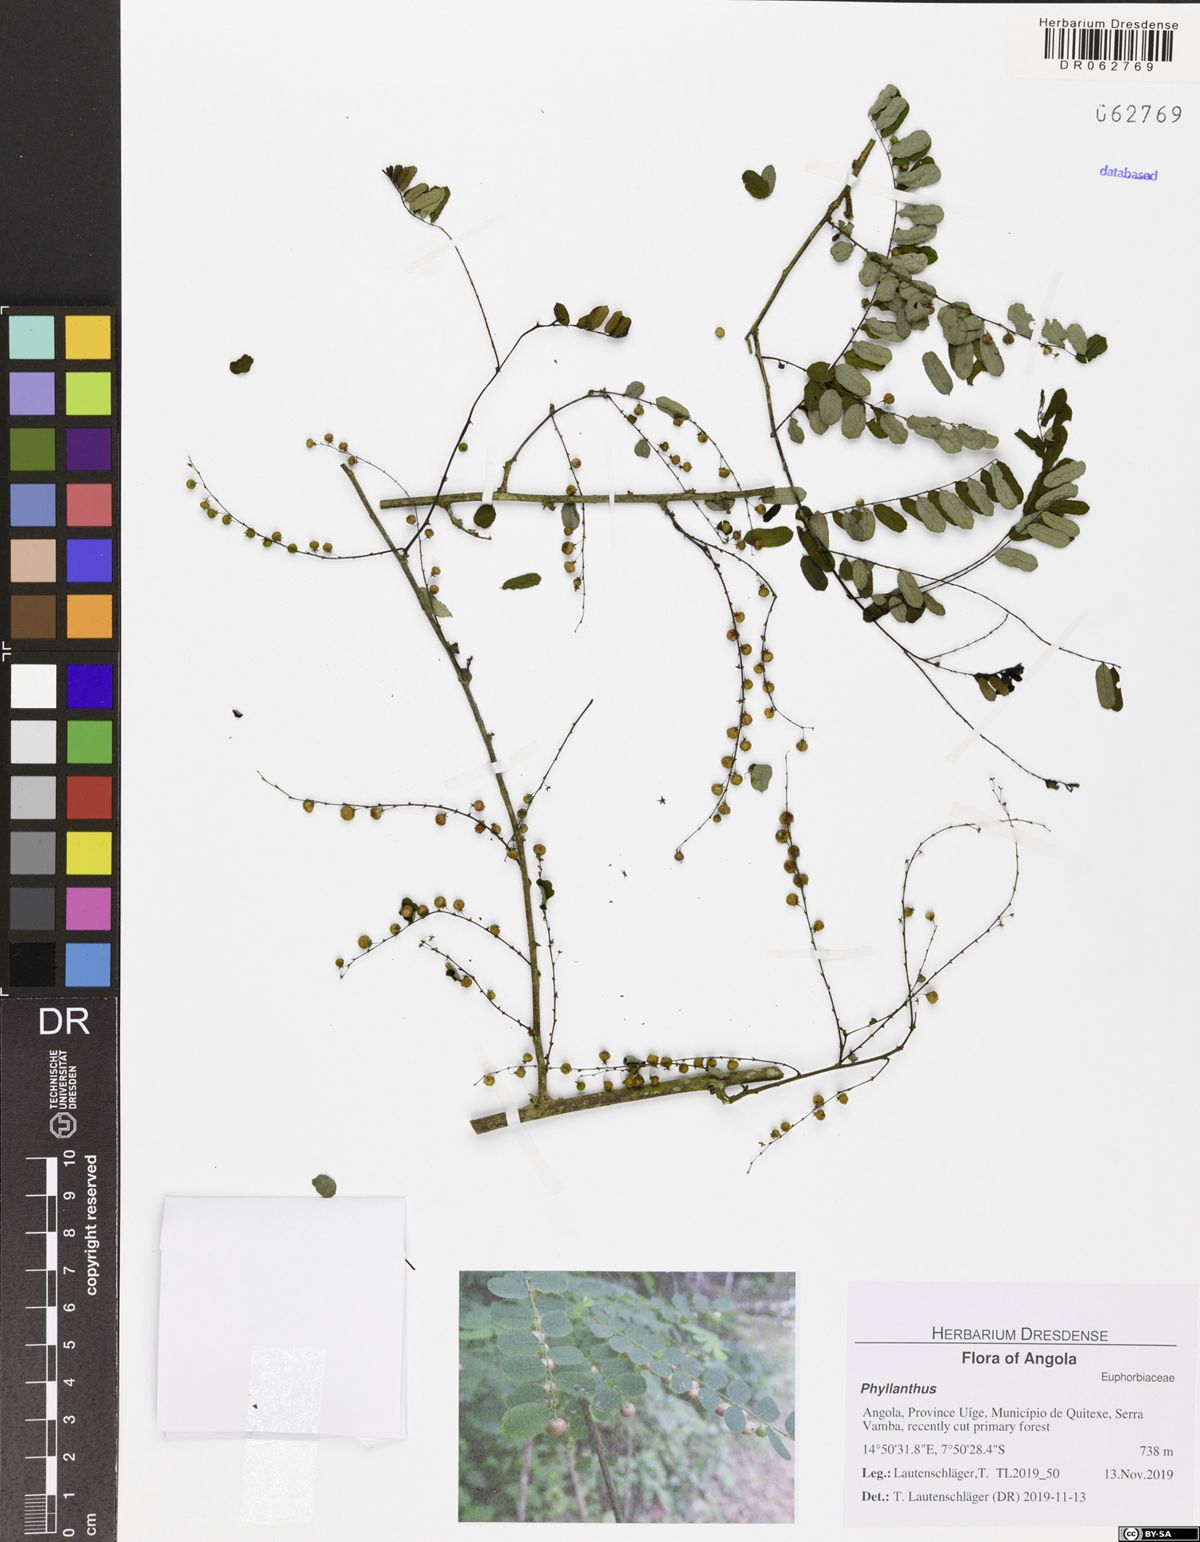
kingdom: Plantae
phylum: Tracheophyta
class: Magnoliopsida
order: Malpighiales
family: Phyllanthaceae
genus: Phyllanthus
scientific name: Phyllanthus ovalifolius
